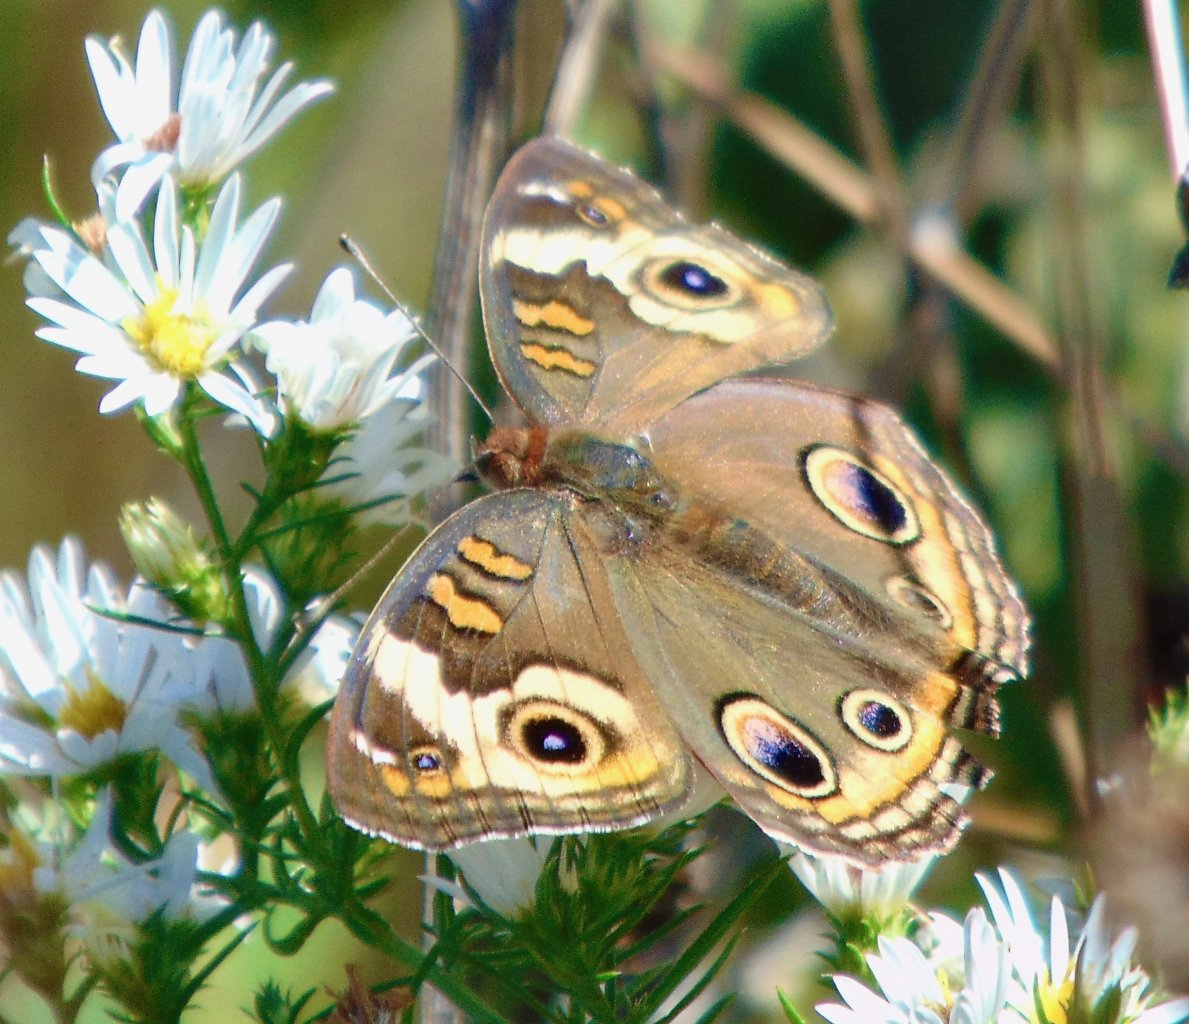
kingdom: Animalia
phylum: Arthropoda
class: Insecta
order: Lepidoptera
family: Nymphalidae
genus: Junonia
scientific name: Junonia coenia
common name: Common Buckeye
